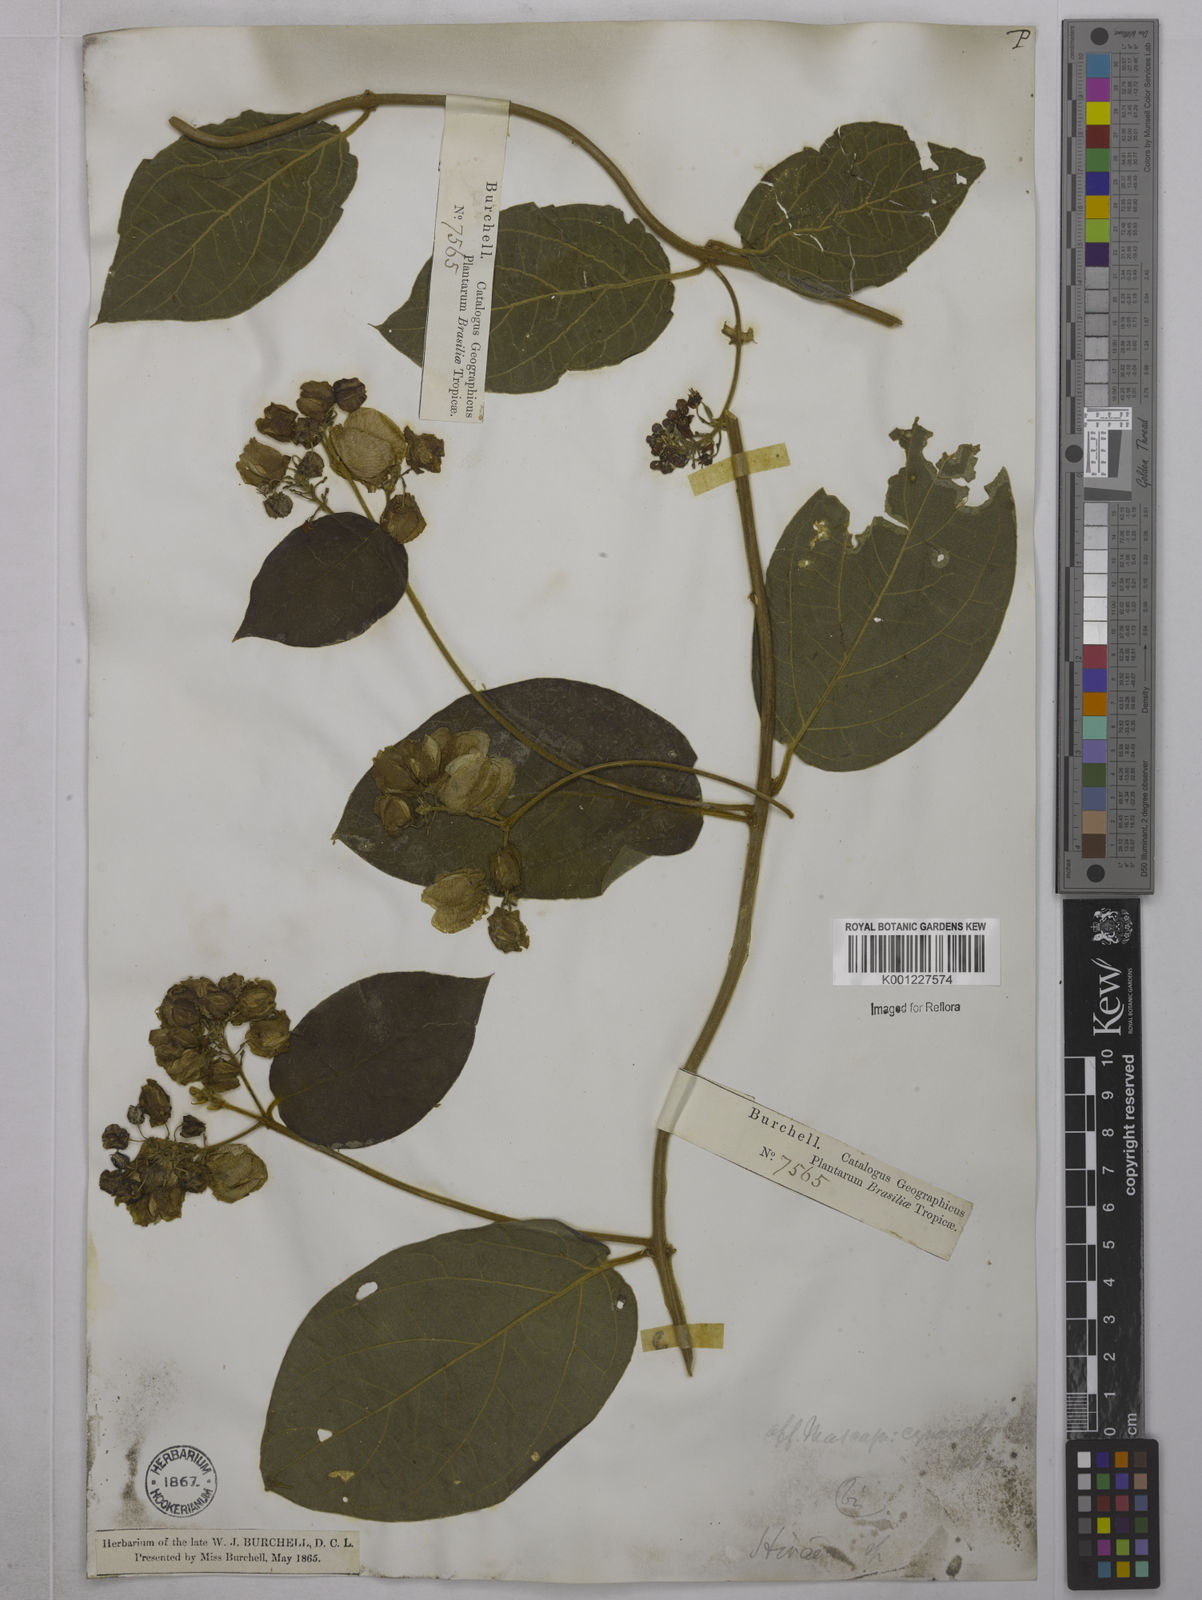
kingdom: Plantae
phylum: Tracheophyta
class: Magnoliopsida
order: Malpighiales
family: Malpighiaceae
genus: Mascagnia
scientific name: Mascagnia cordifolia
